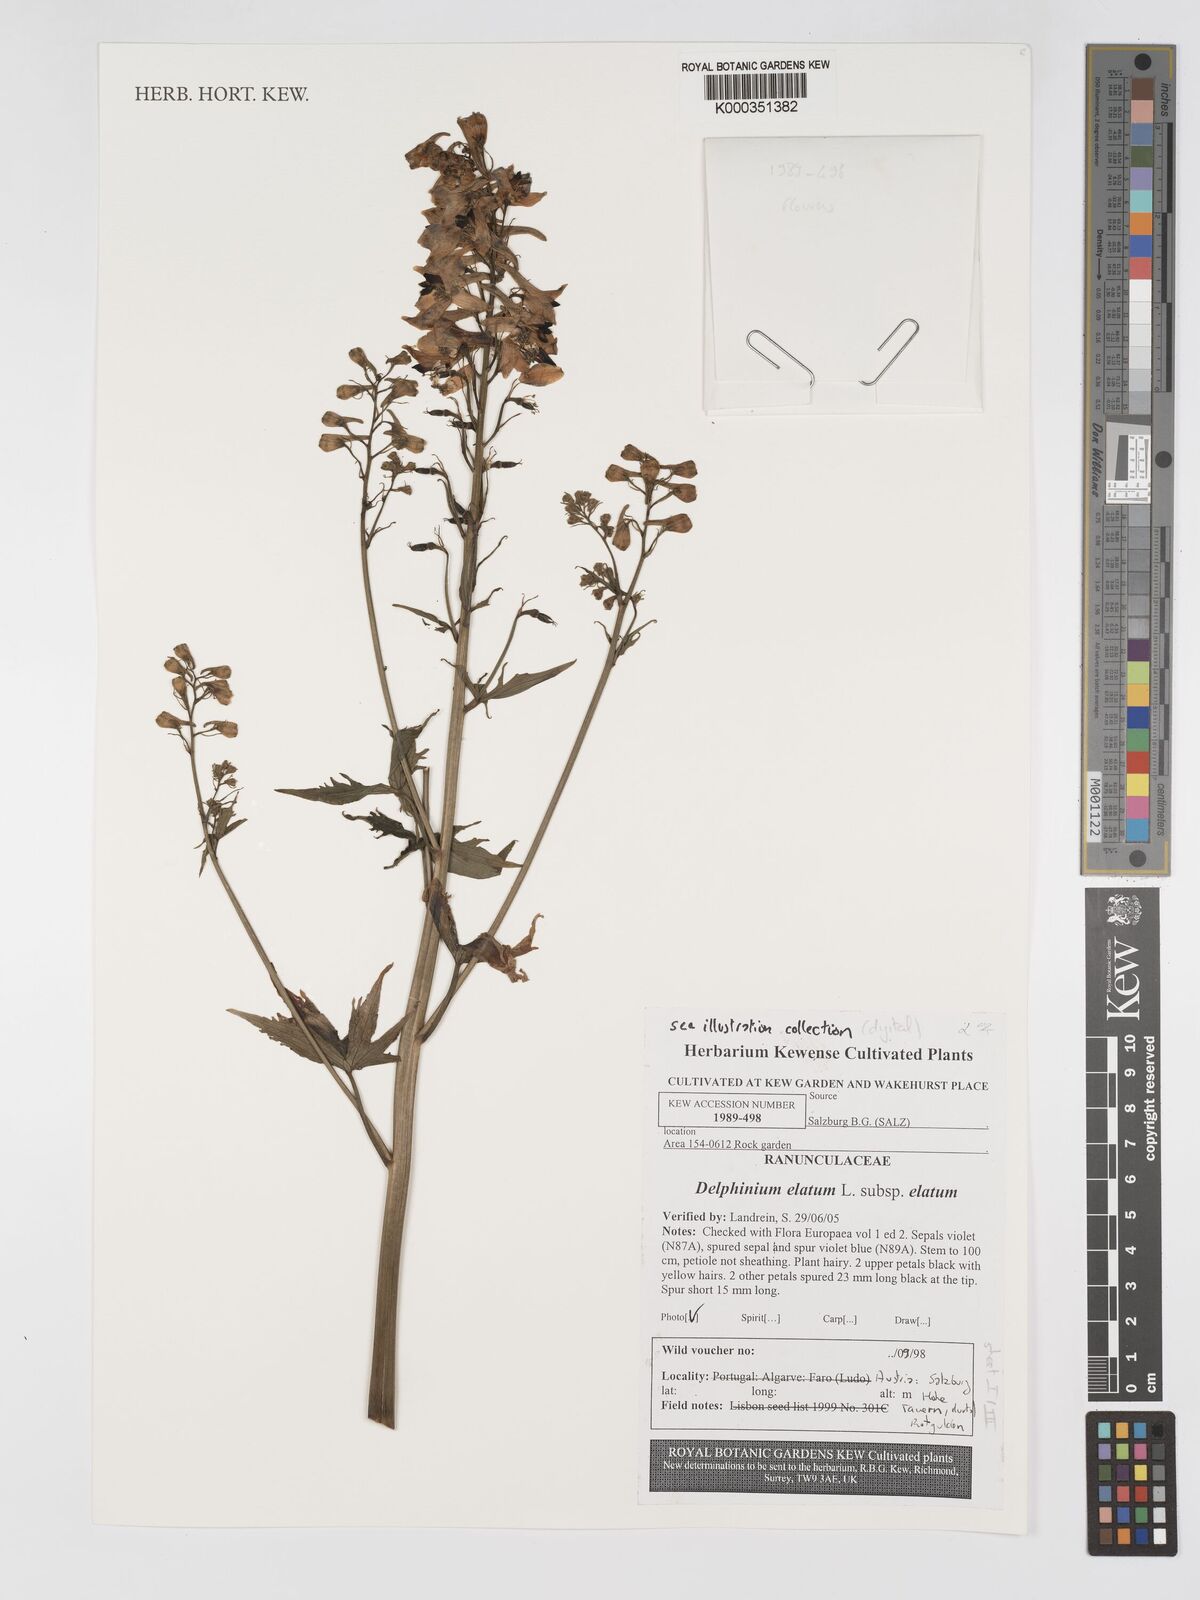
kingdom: Plantae
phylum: Tracheophyta
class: Magnoliopsida
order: Ranunculales
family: Ranunculaceae
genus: Delphinium
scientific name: Delphinium elatum
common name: Candle larkspur
